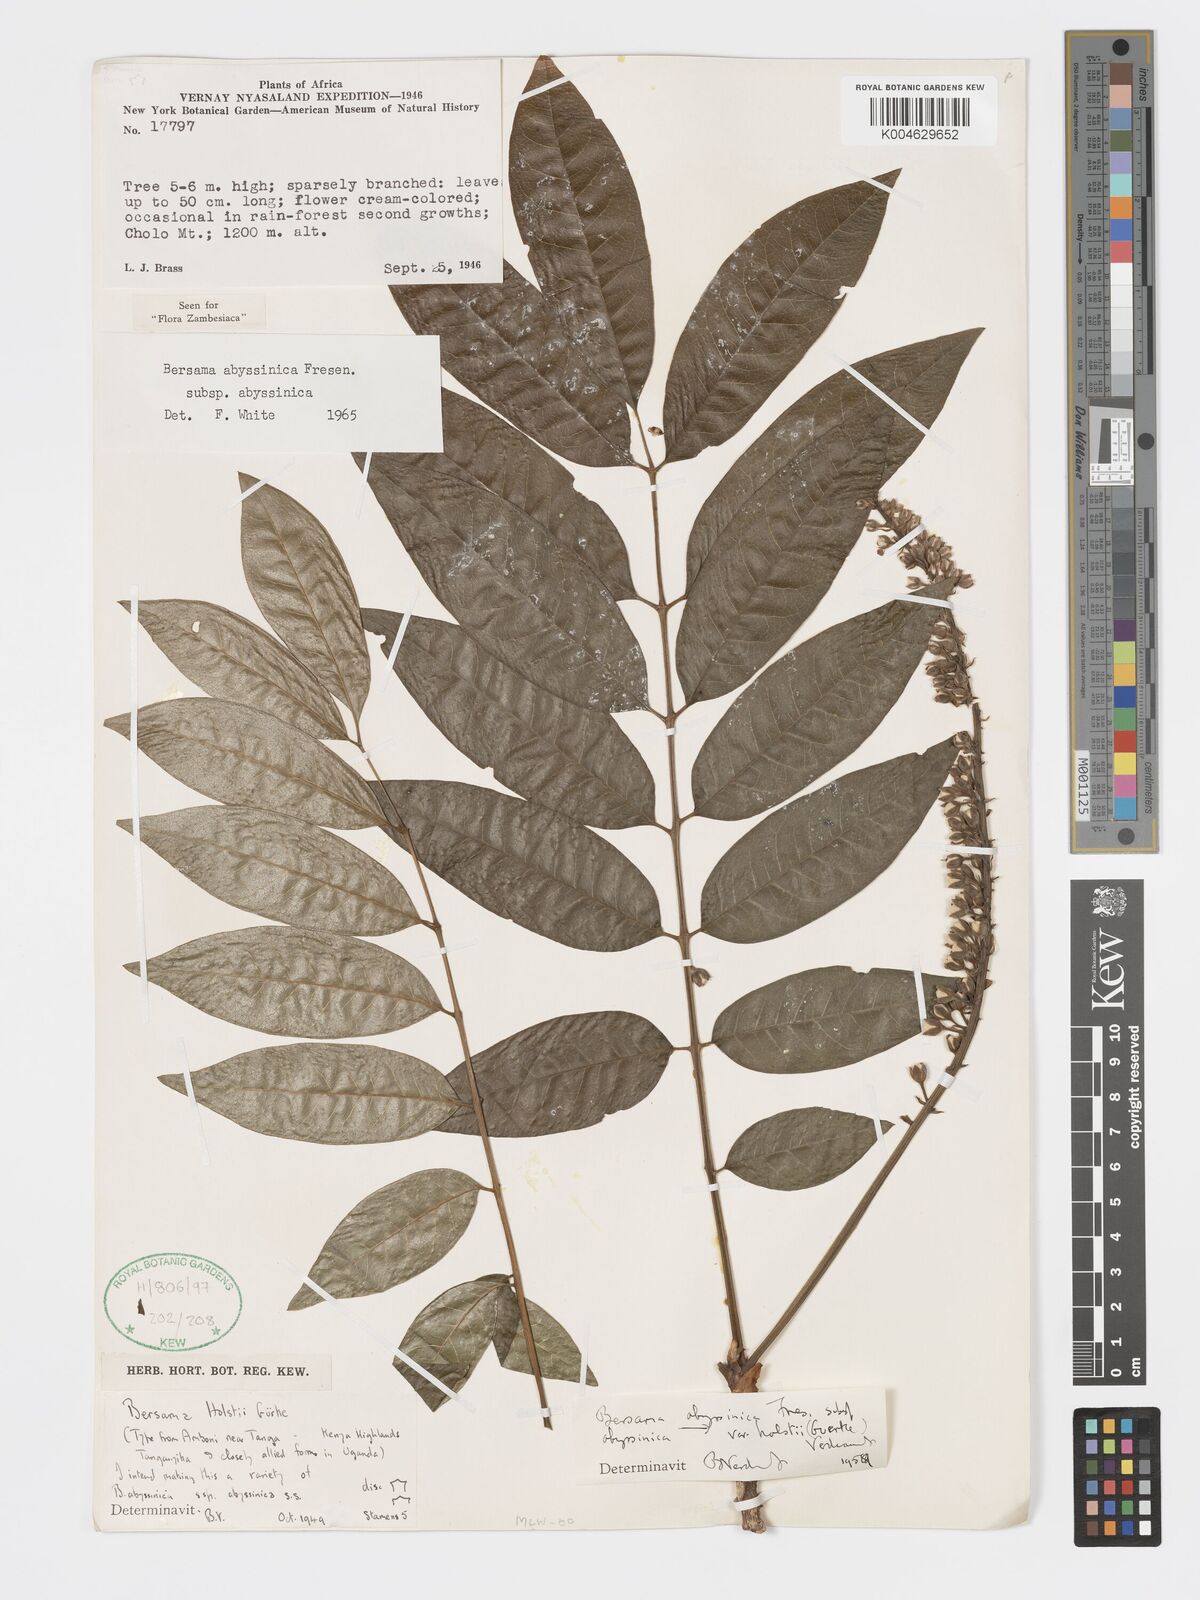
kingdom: Plantae
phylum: Tracheophyta
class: Magnoliopsida
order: Geraniales
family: Francoaceae
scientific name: Francoaceae
